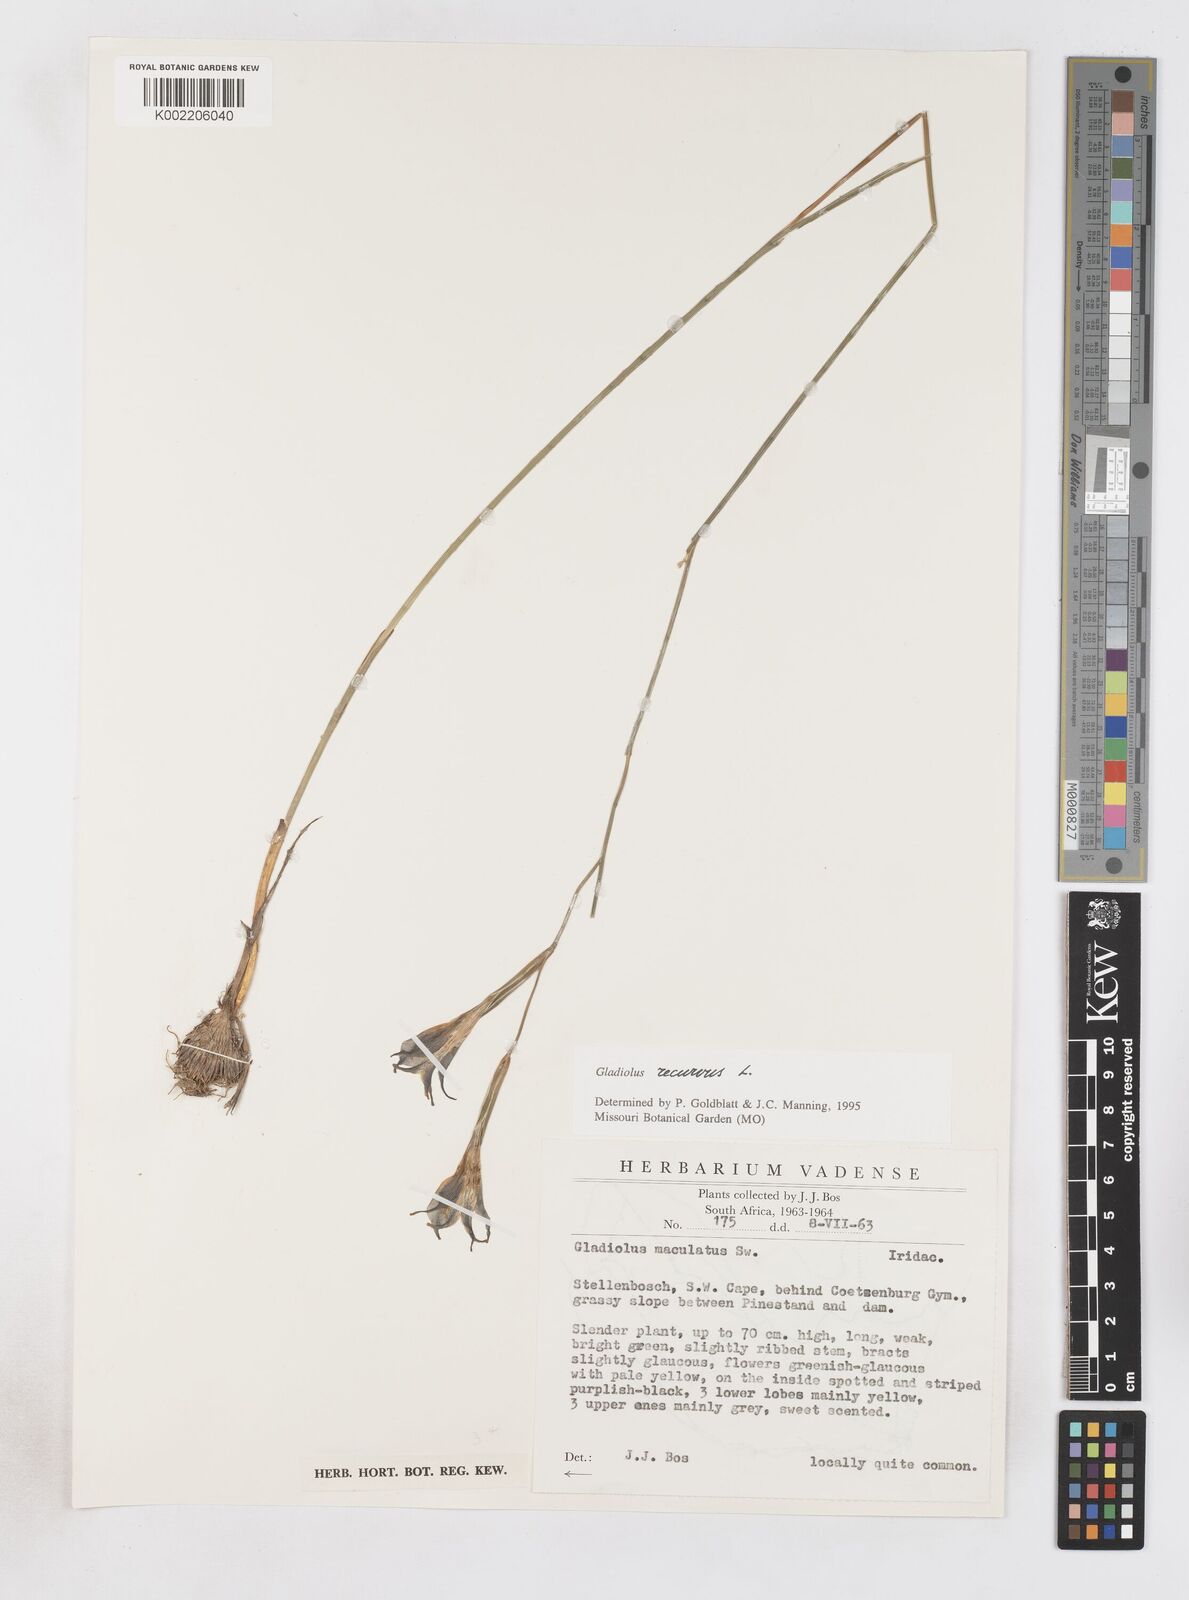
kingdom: Plantae
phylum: Tracheophyta
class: Liliopsida
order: Asparagales
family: Iridaceae
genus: Gladiolus
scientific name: Gladiolus recurvus
